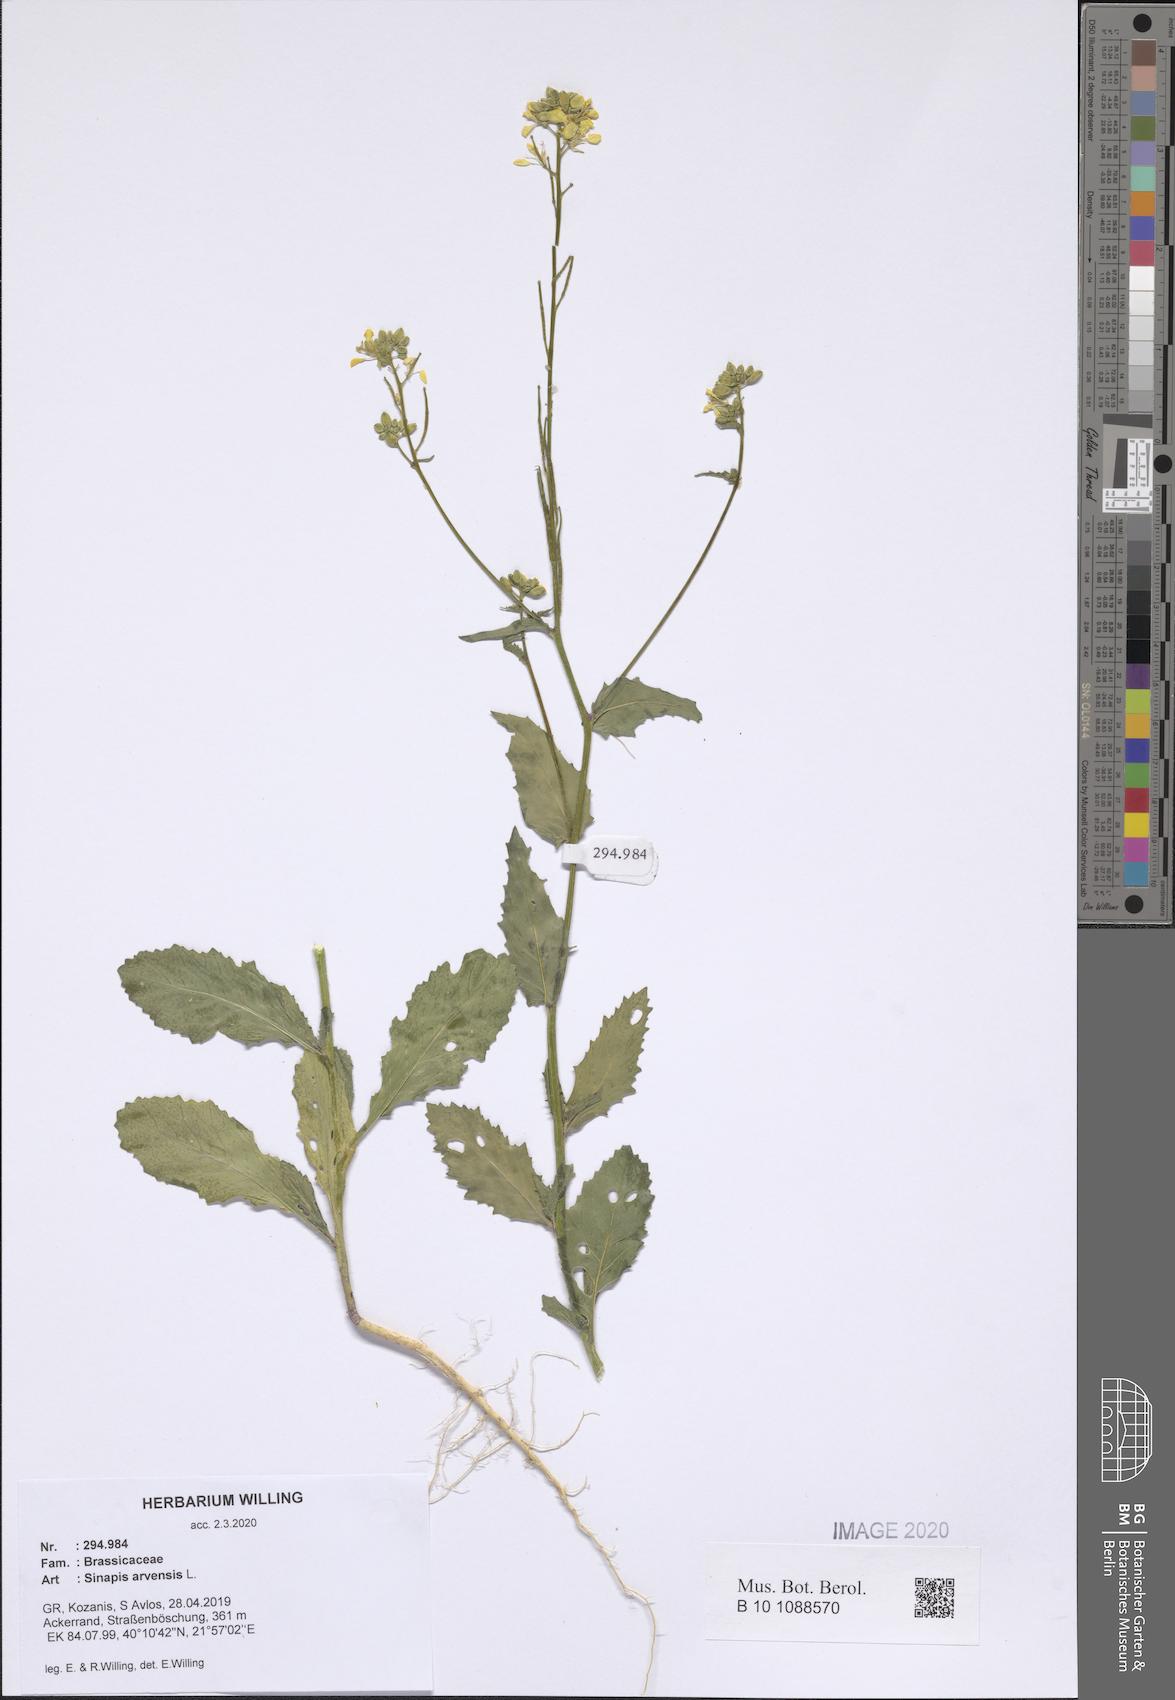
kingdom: Plantae
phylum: Tracheophyta
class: Magnoliopsida
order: Brassicales
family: Brassicaceae
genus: Sinapis
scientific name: Sinapis arvensis
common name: Charlock
